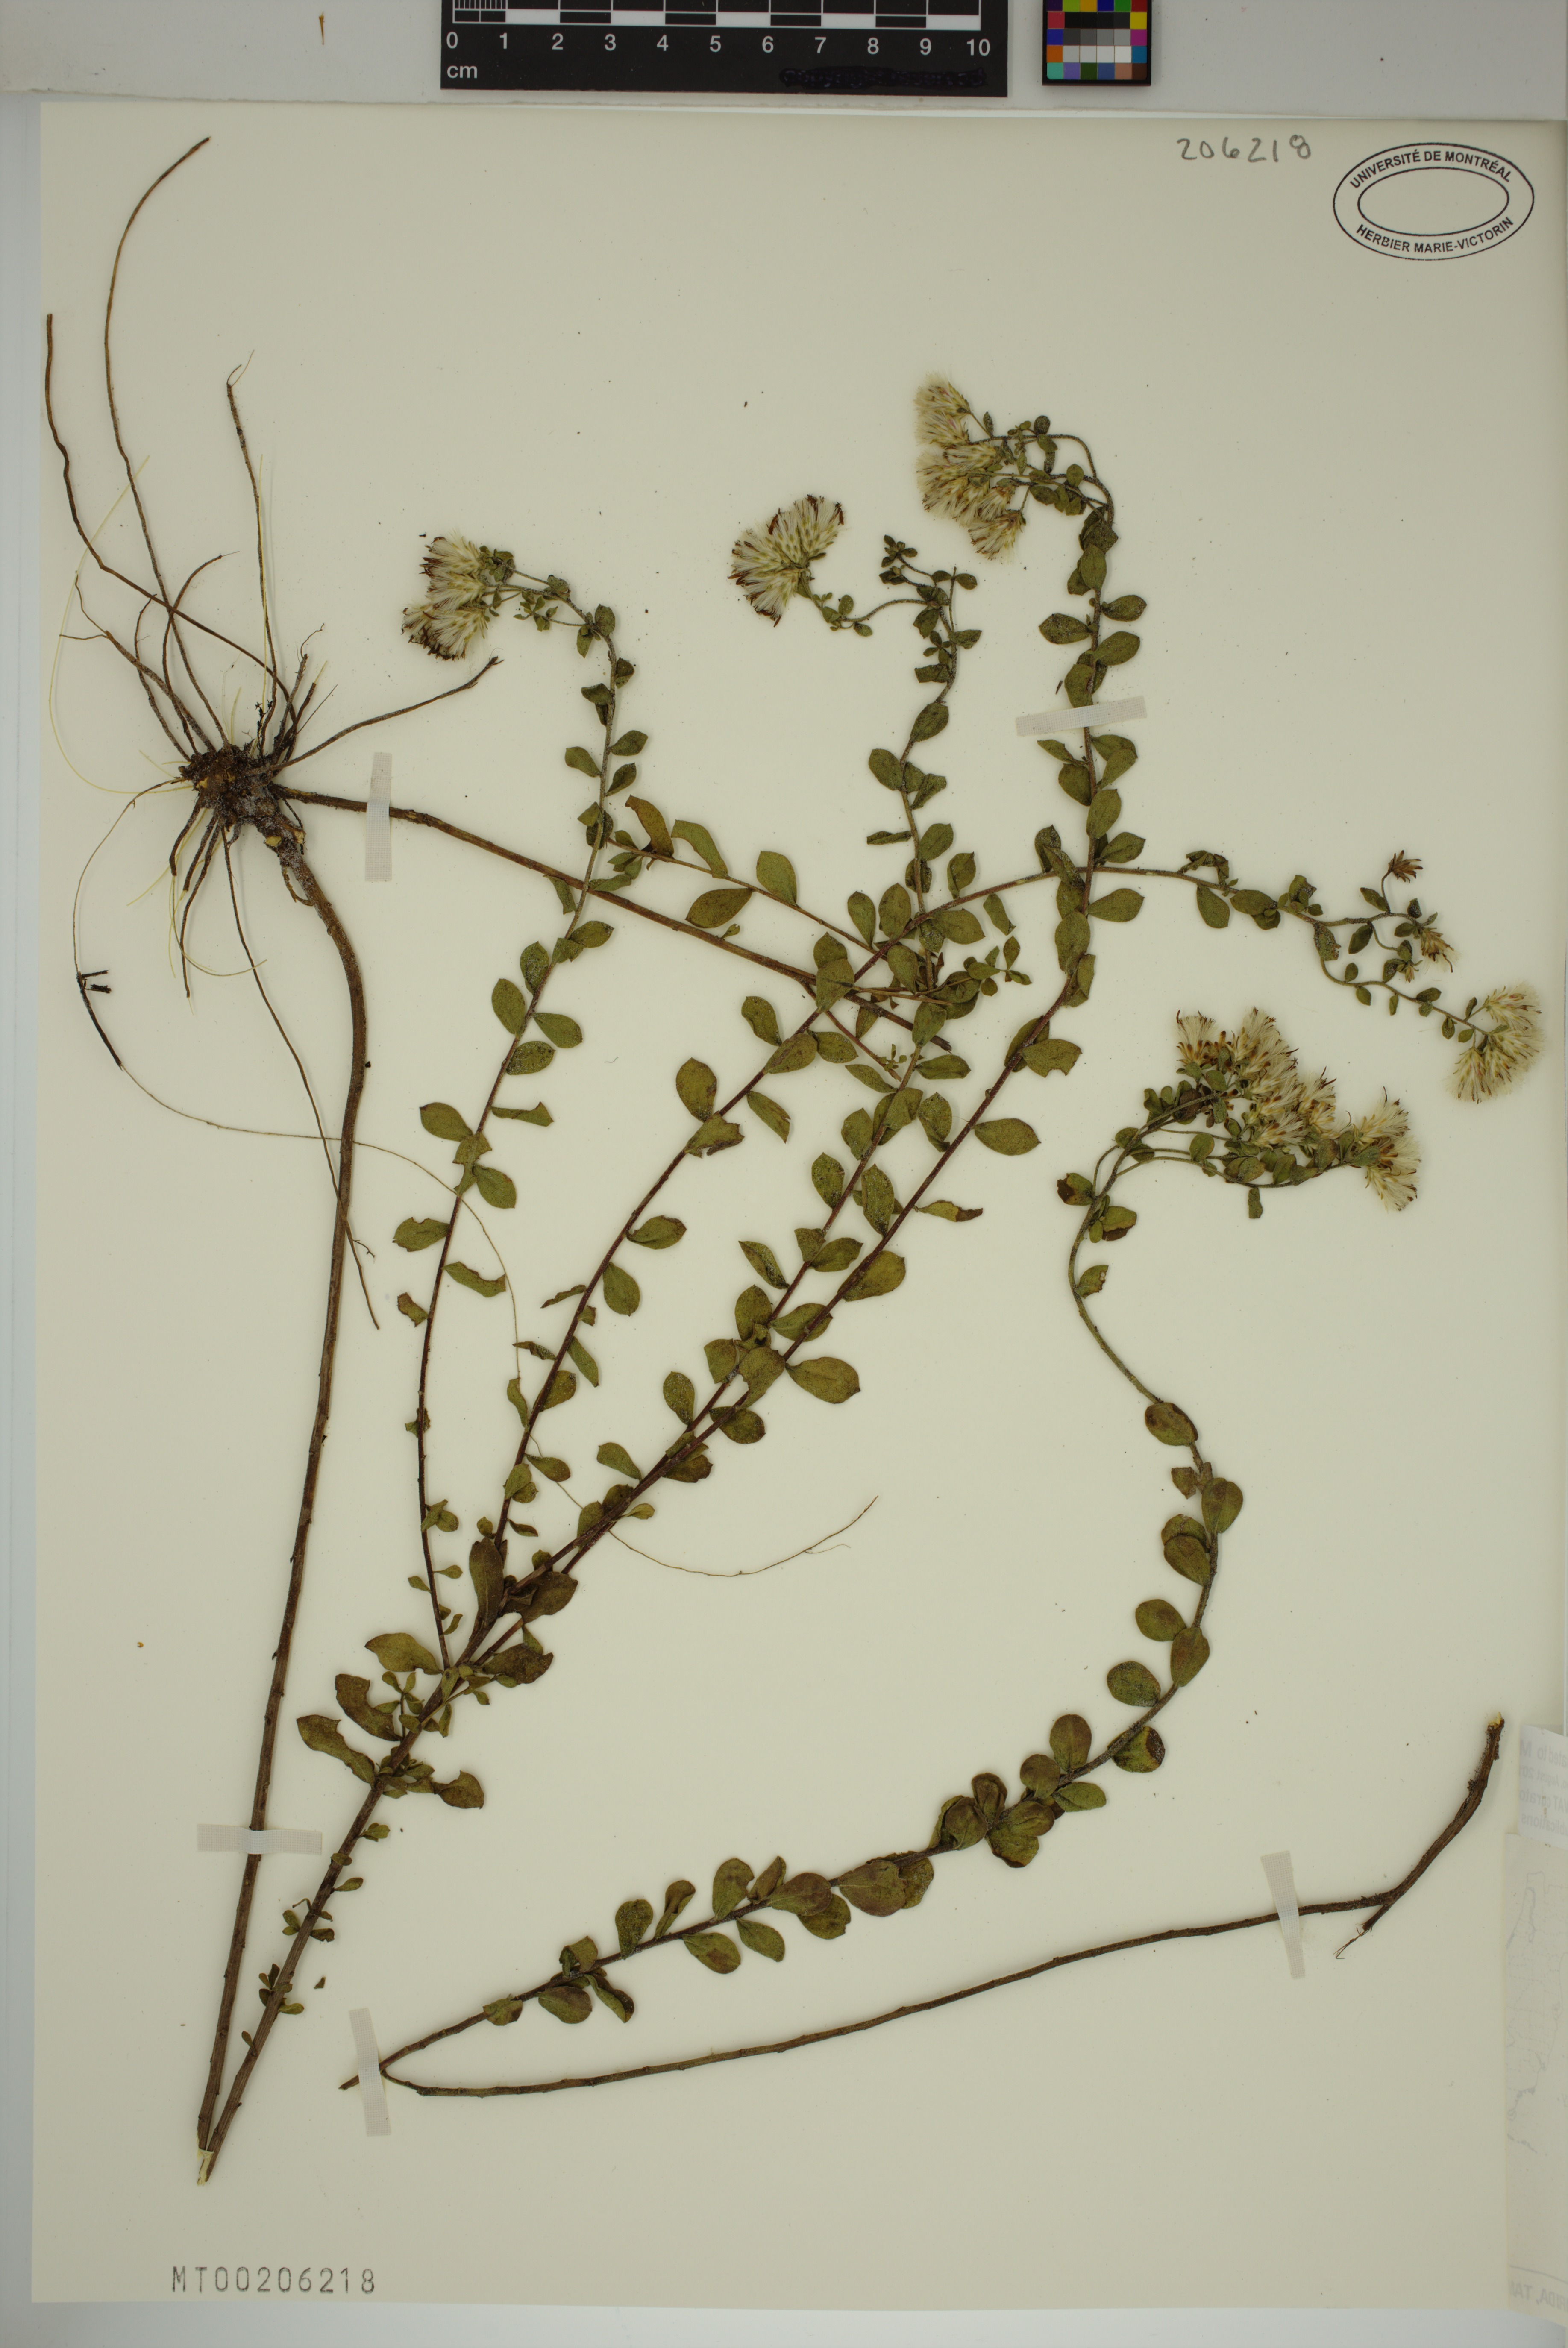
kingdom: Plantae
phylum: Tracheophyta
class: Magnoliopsida
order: Asterales
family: Asteraceae
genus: Sericocarpus
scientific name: Sericocarpus tortifolius
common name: Dixie aster
